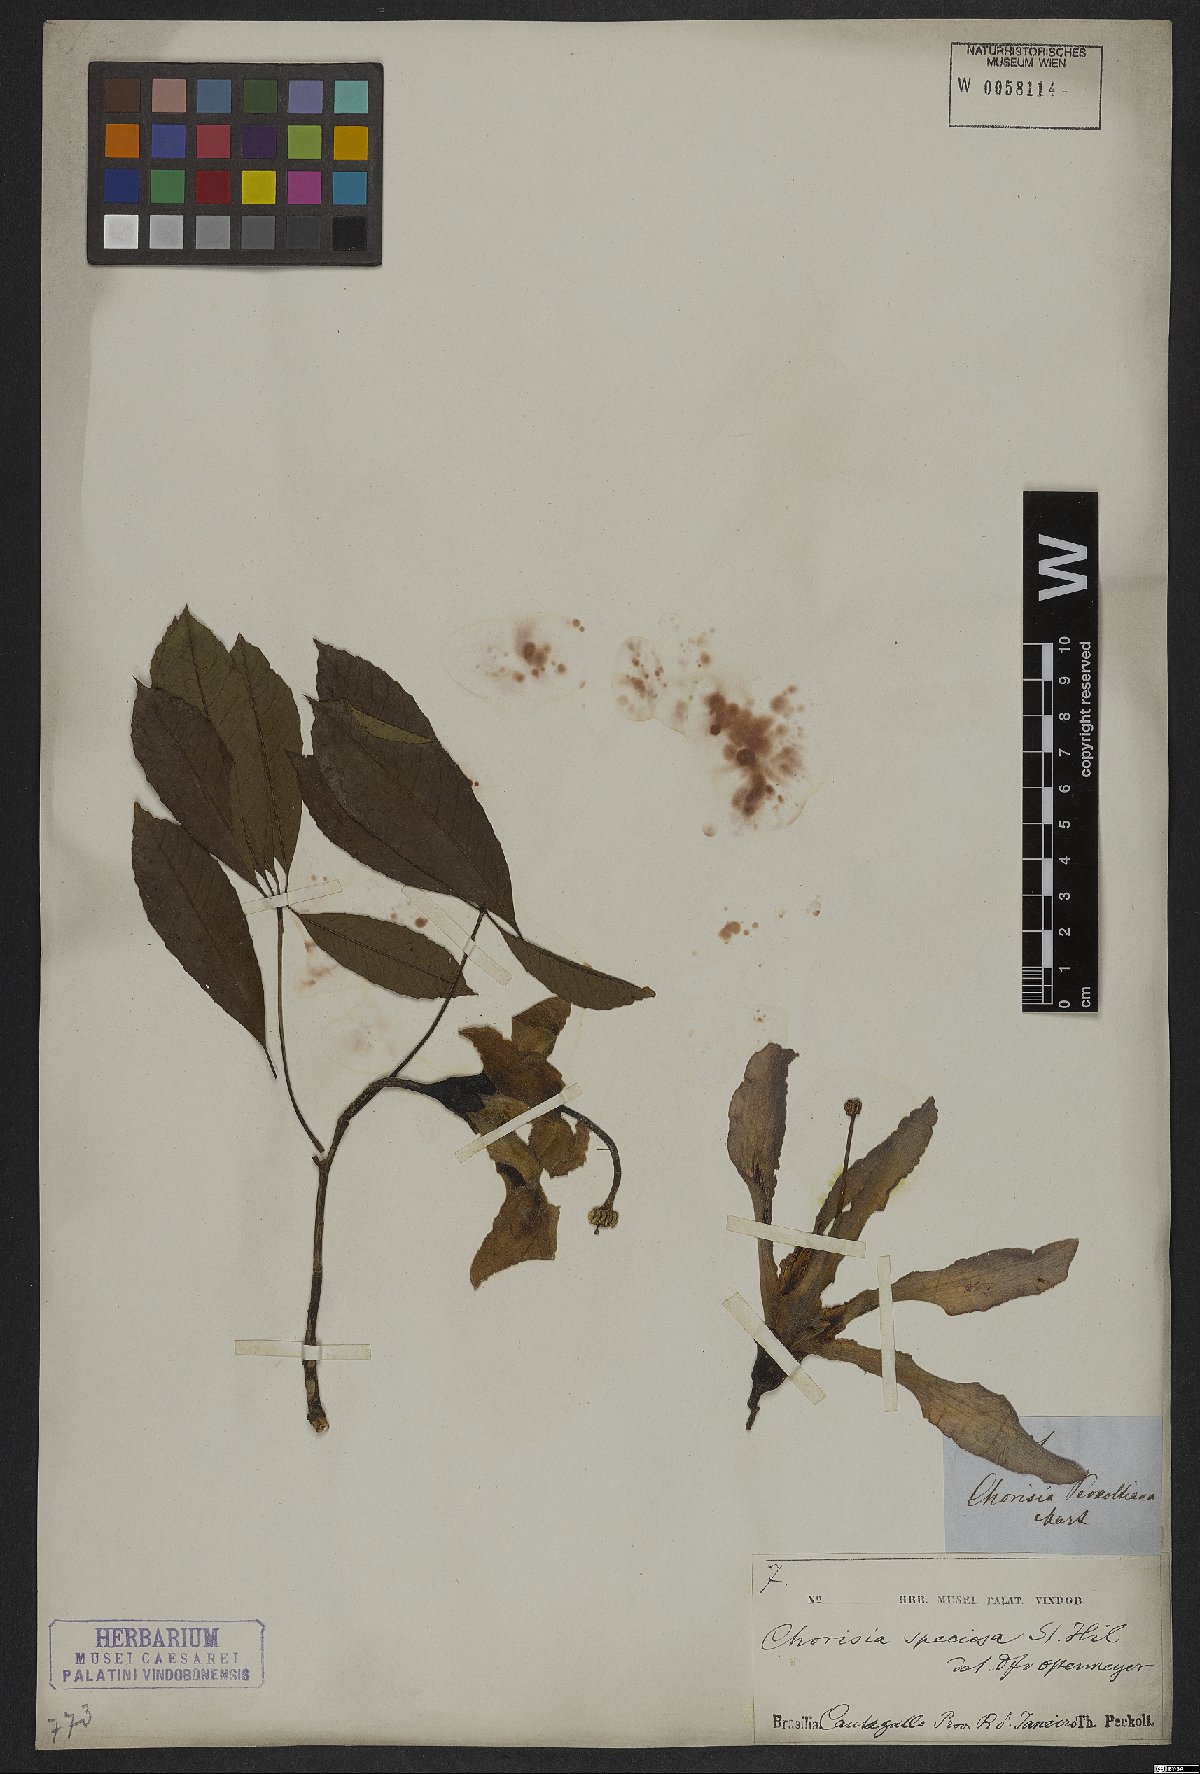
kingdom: Plantae
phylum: Tracheophyta
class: Magnoliopsida
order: Malvales
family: Malvaceae
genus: Ceiba
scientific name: Ceiba speciosa
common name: Silk-floss tree
